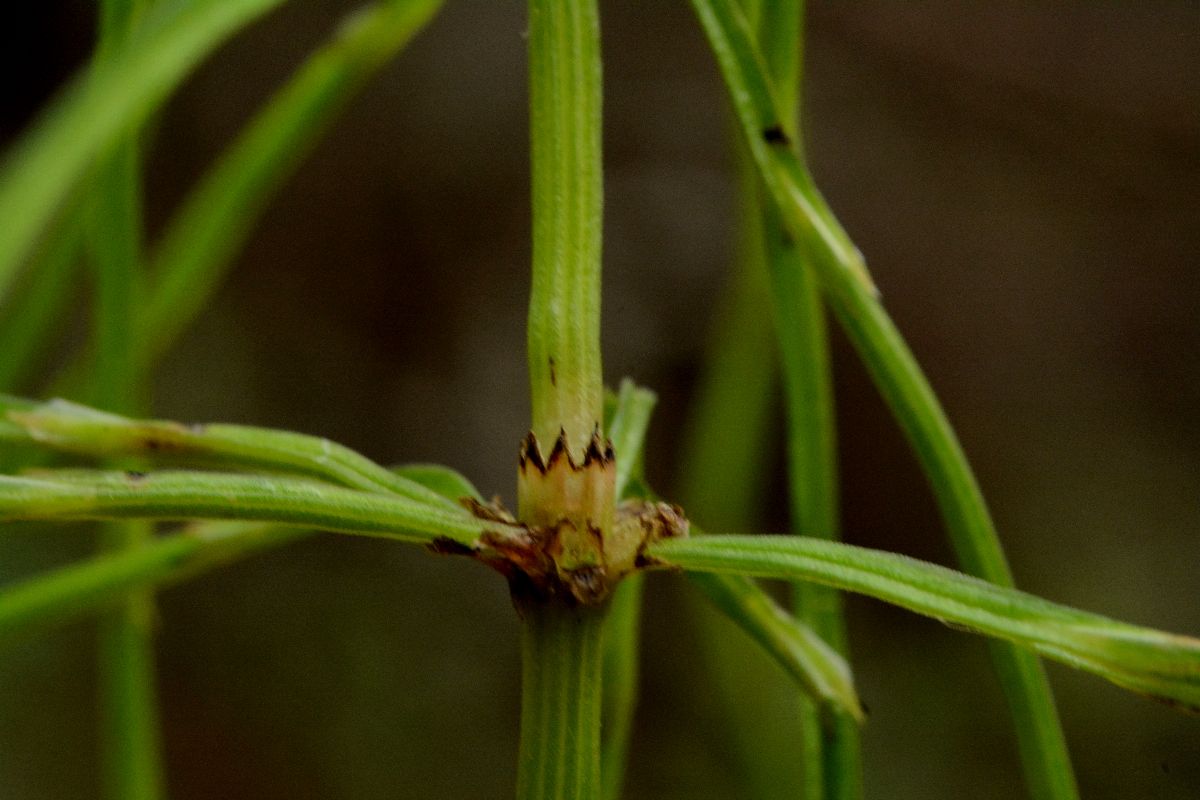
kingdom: Plantae
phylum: Tracheophyta
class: Polypodiopsida
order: Equisetales
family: Equisetaceae
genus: Equisetum
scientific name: Equisetum arvense
